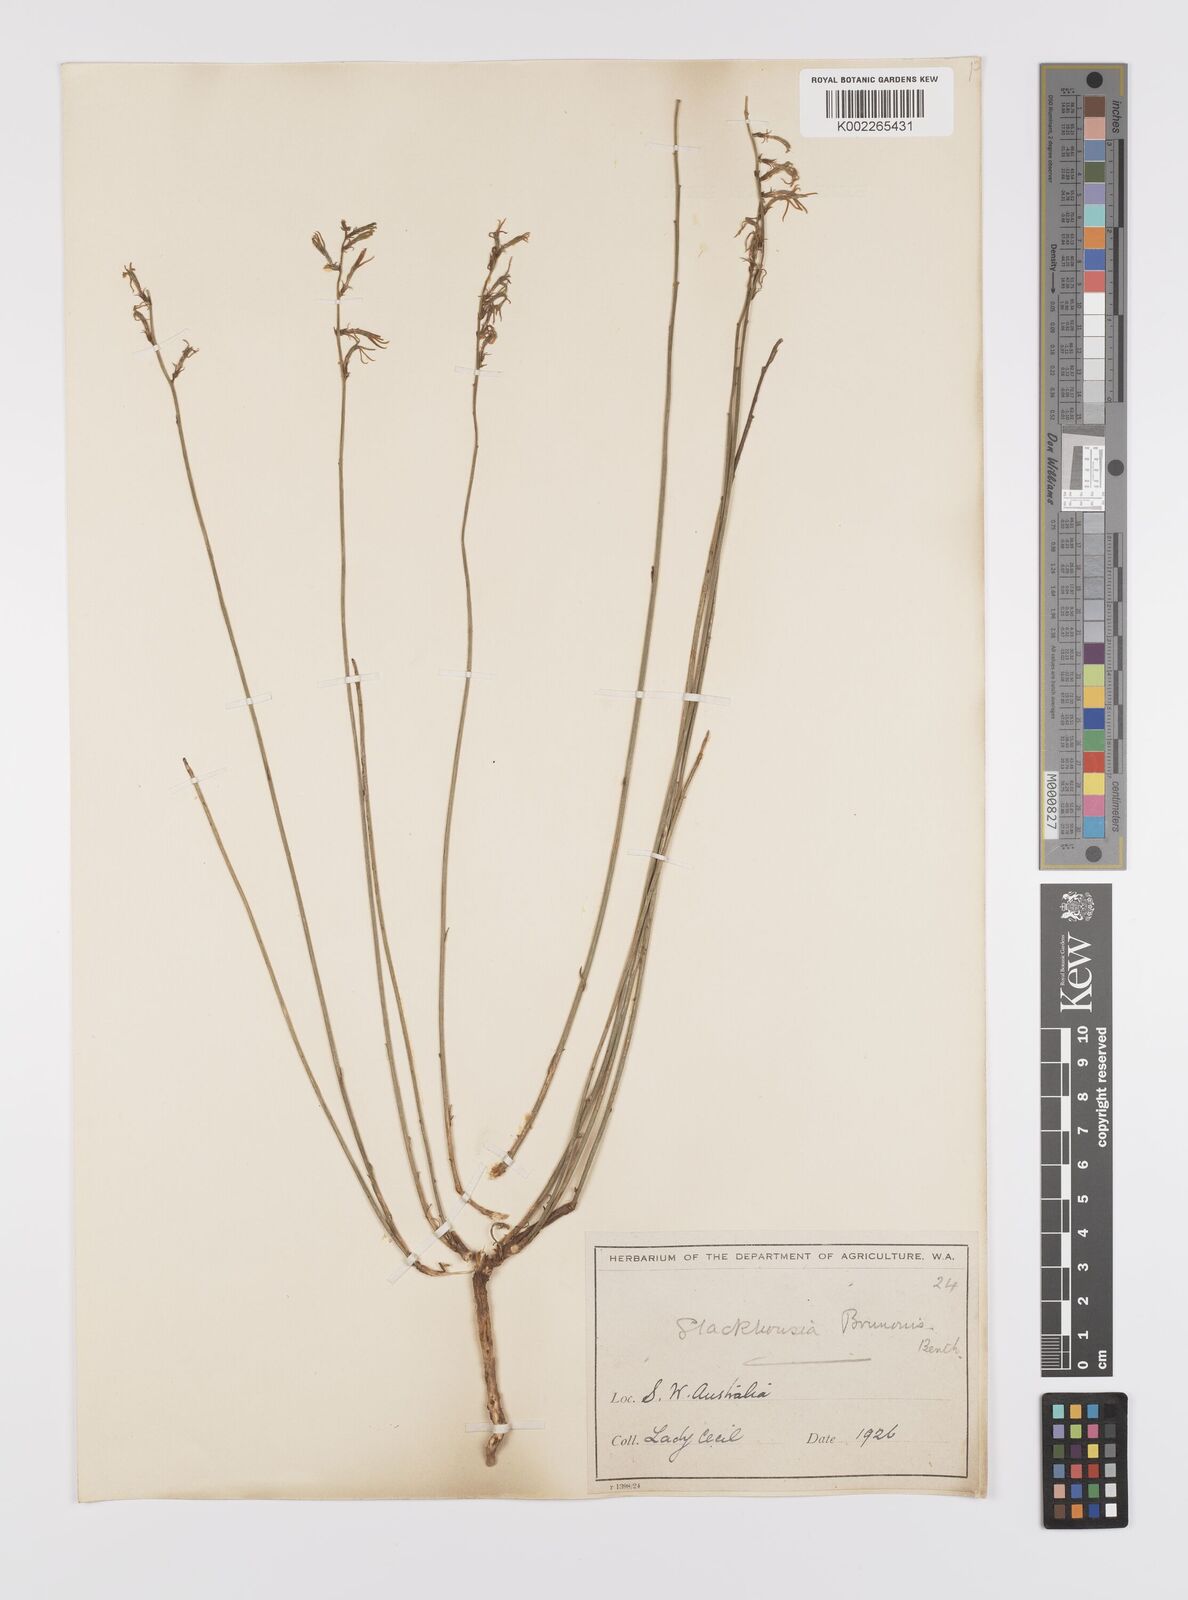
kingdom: Plantae
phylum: Tracheophyta
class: Magnoliopsida
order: Celastrales
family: Celastraceae
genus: Tripterococcus
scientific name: Tripterococcus brunonis
